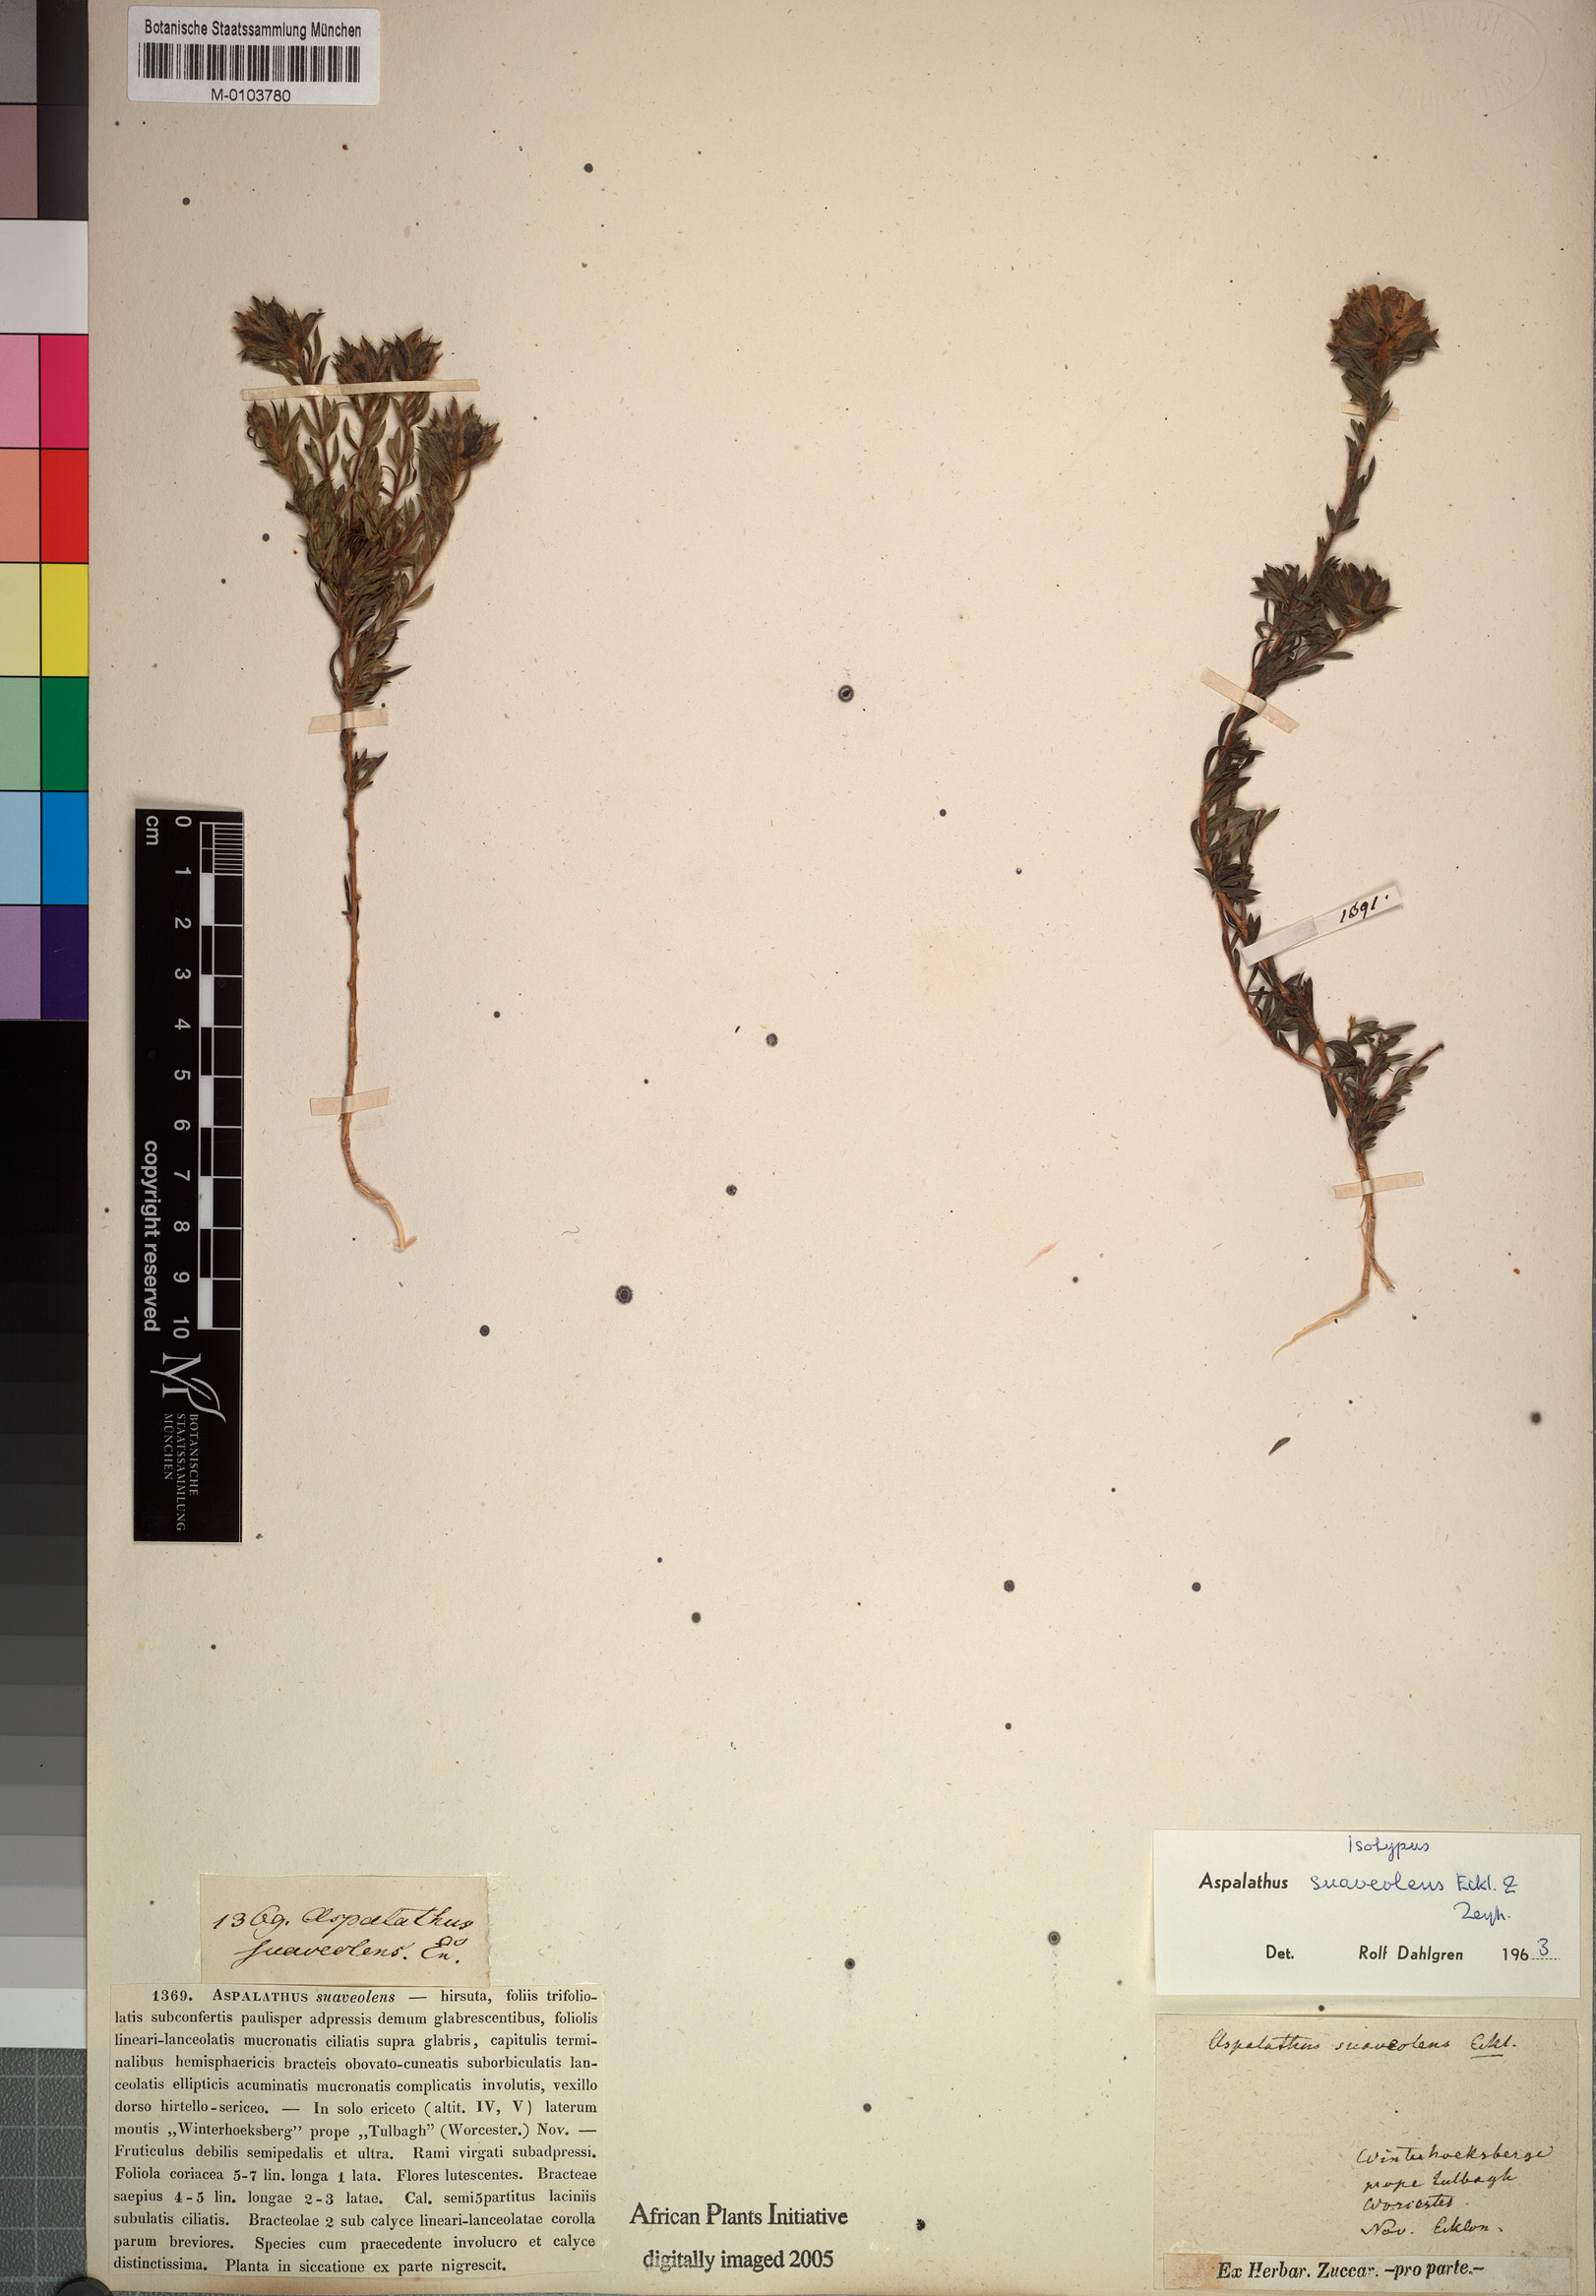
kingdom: Plantae
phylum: Tracheophyta
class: Magnoliopsida
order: Fabales
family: Fabaceae
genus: Aspalathus
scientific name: Aspalathus suaveolens
